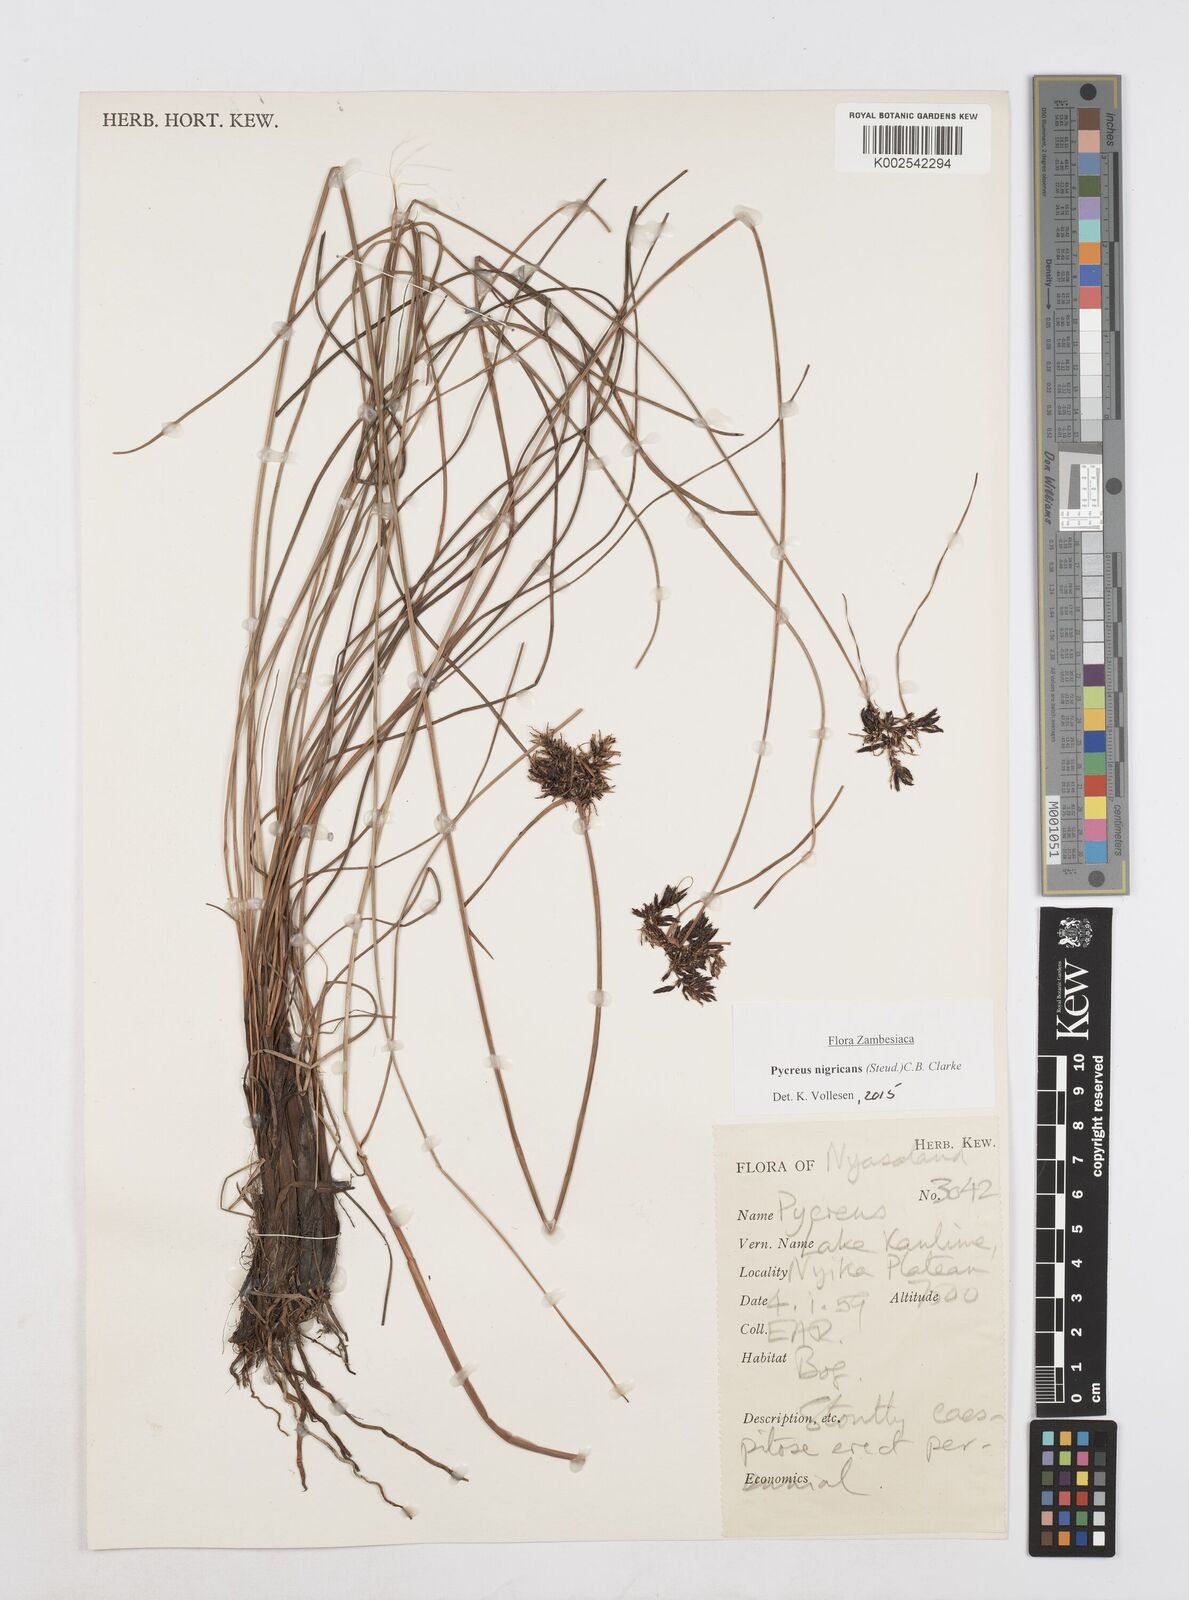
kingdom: Plantae
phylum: Tracheophyta
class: Liliopsida
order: Poales
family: Cyperaceae
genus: Cyperus
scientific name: Cyperus nigricans
